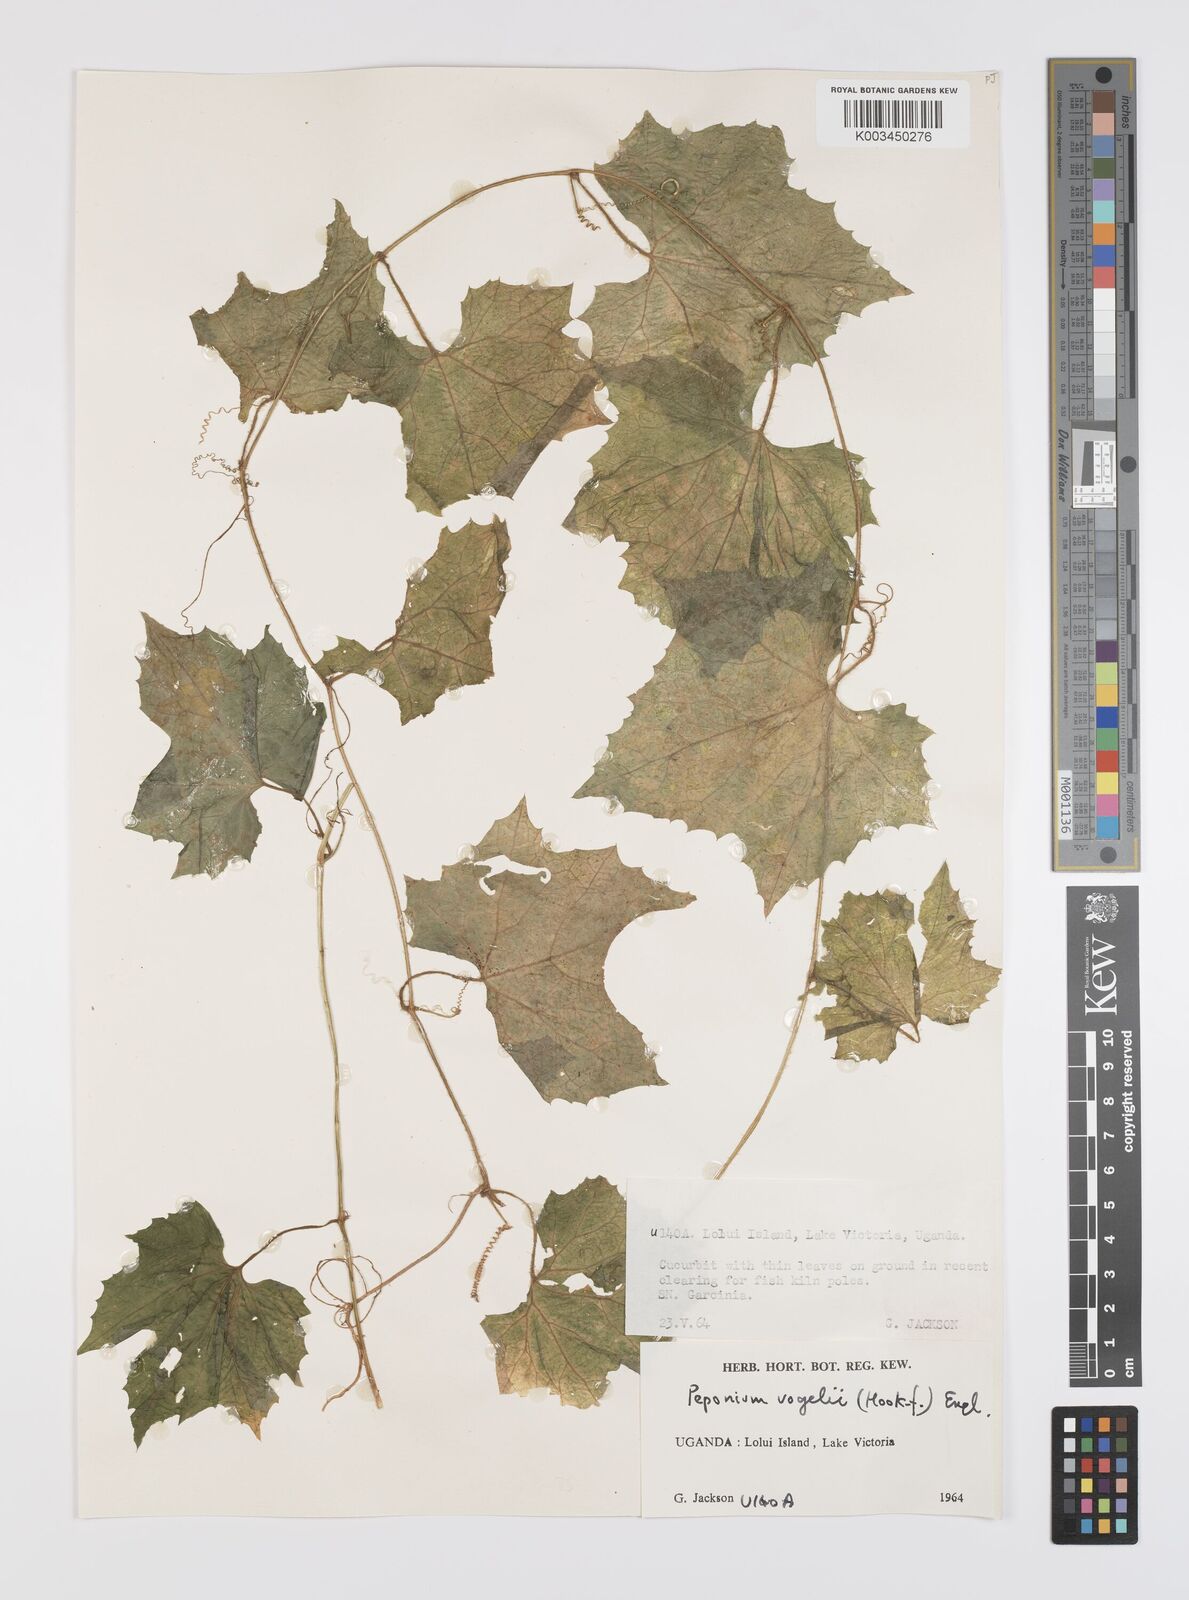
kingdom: Plantae
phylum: Tracheophyta
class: Magnoliopsida
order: Cucurbitales
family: Cucurbitaceae
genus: Peponium
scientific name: Peponium vogelii
